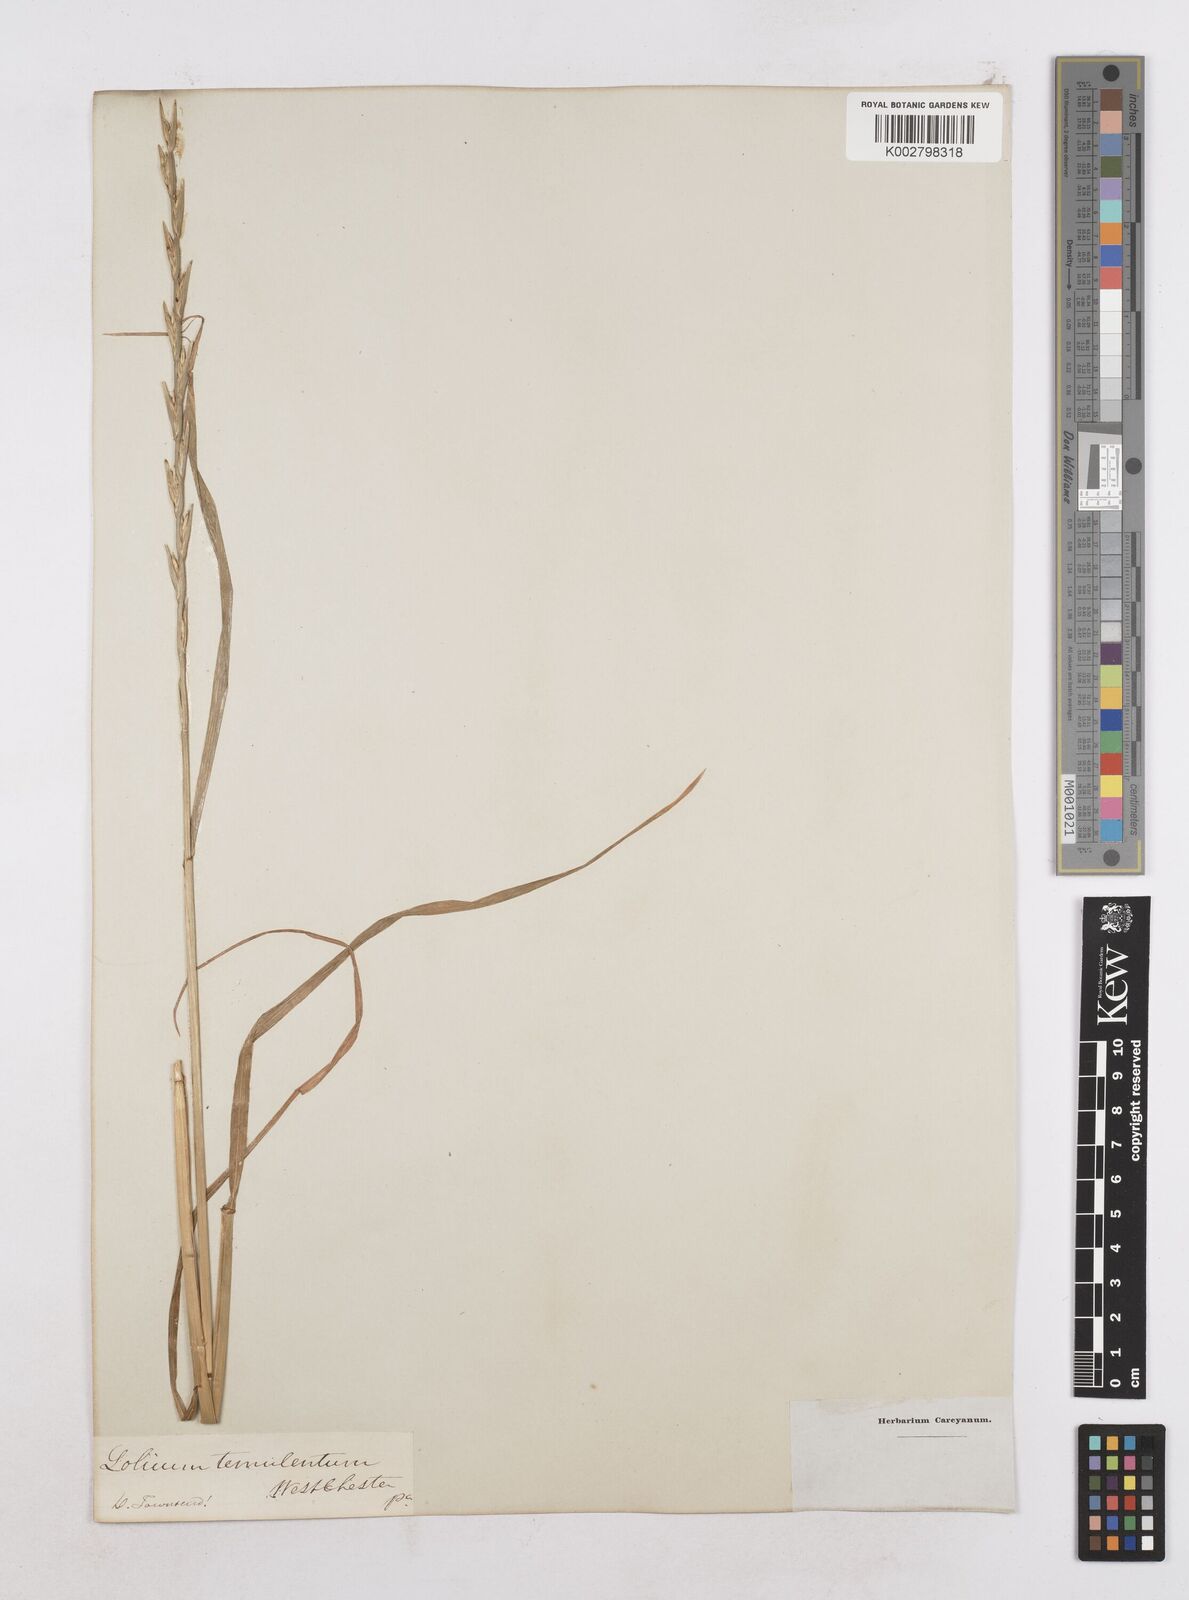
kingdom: Plantae
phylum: Tracheophyta
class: Liliopsida
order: Poales
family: Poaceae
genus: Lolium
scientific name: Lolium temulentum
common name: Darnel
